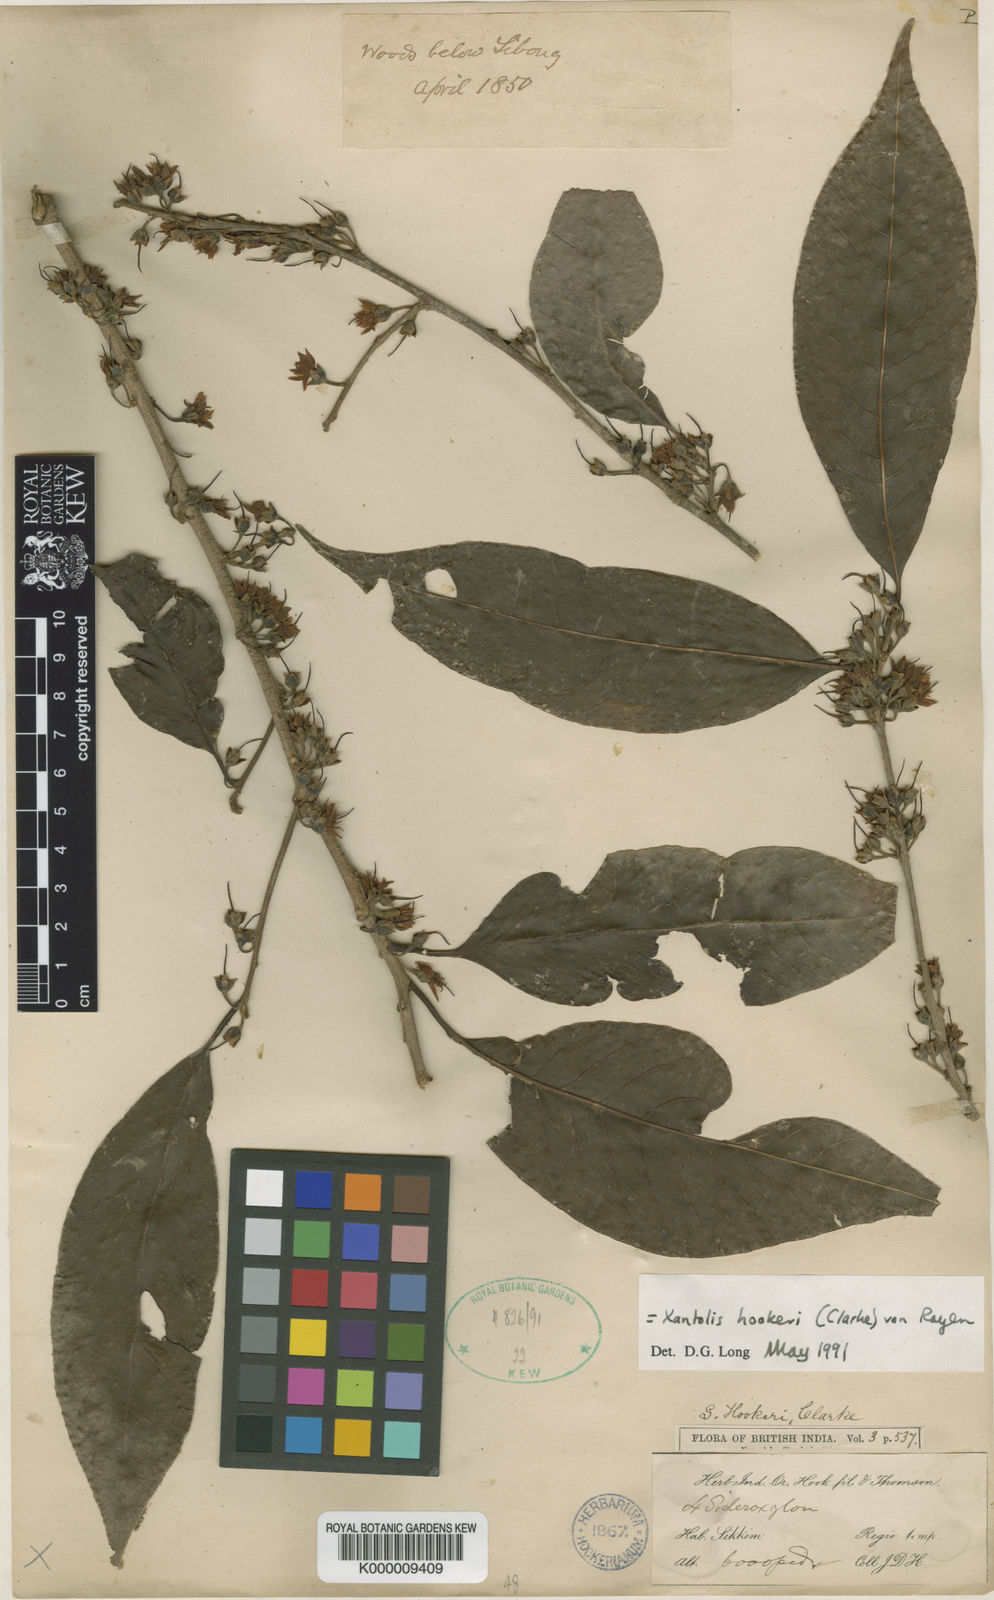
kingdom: Plantae
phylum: Tracheophyta
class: Magnoliopsida
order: Ericales
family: Sapotaceae
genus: Xantolis
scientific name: Xantolis hookeri
